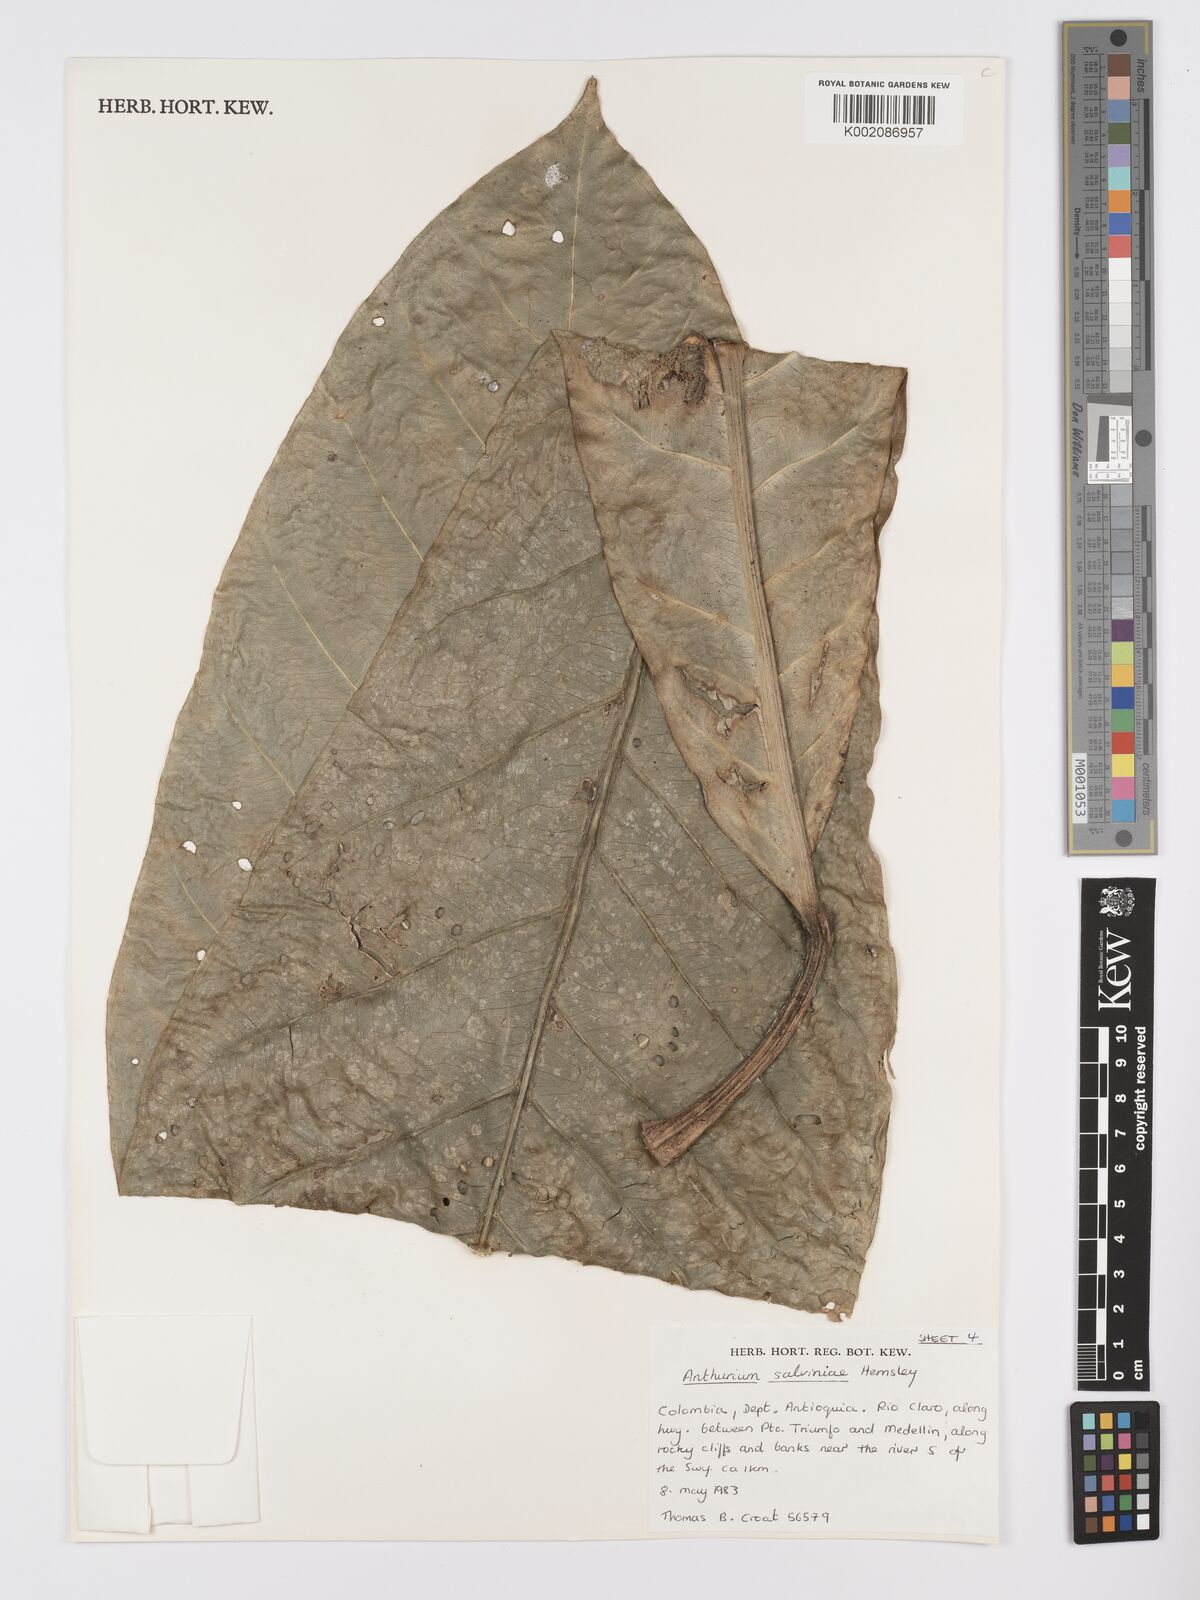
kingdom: Plantae
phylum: Tracheophyta
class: Liliopsida
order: Alismatales
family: Araceae
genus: Anthurium
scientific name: Anthurium salvinii
